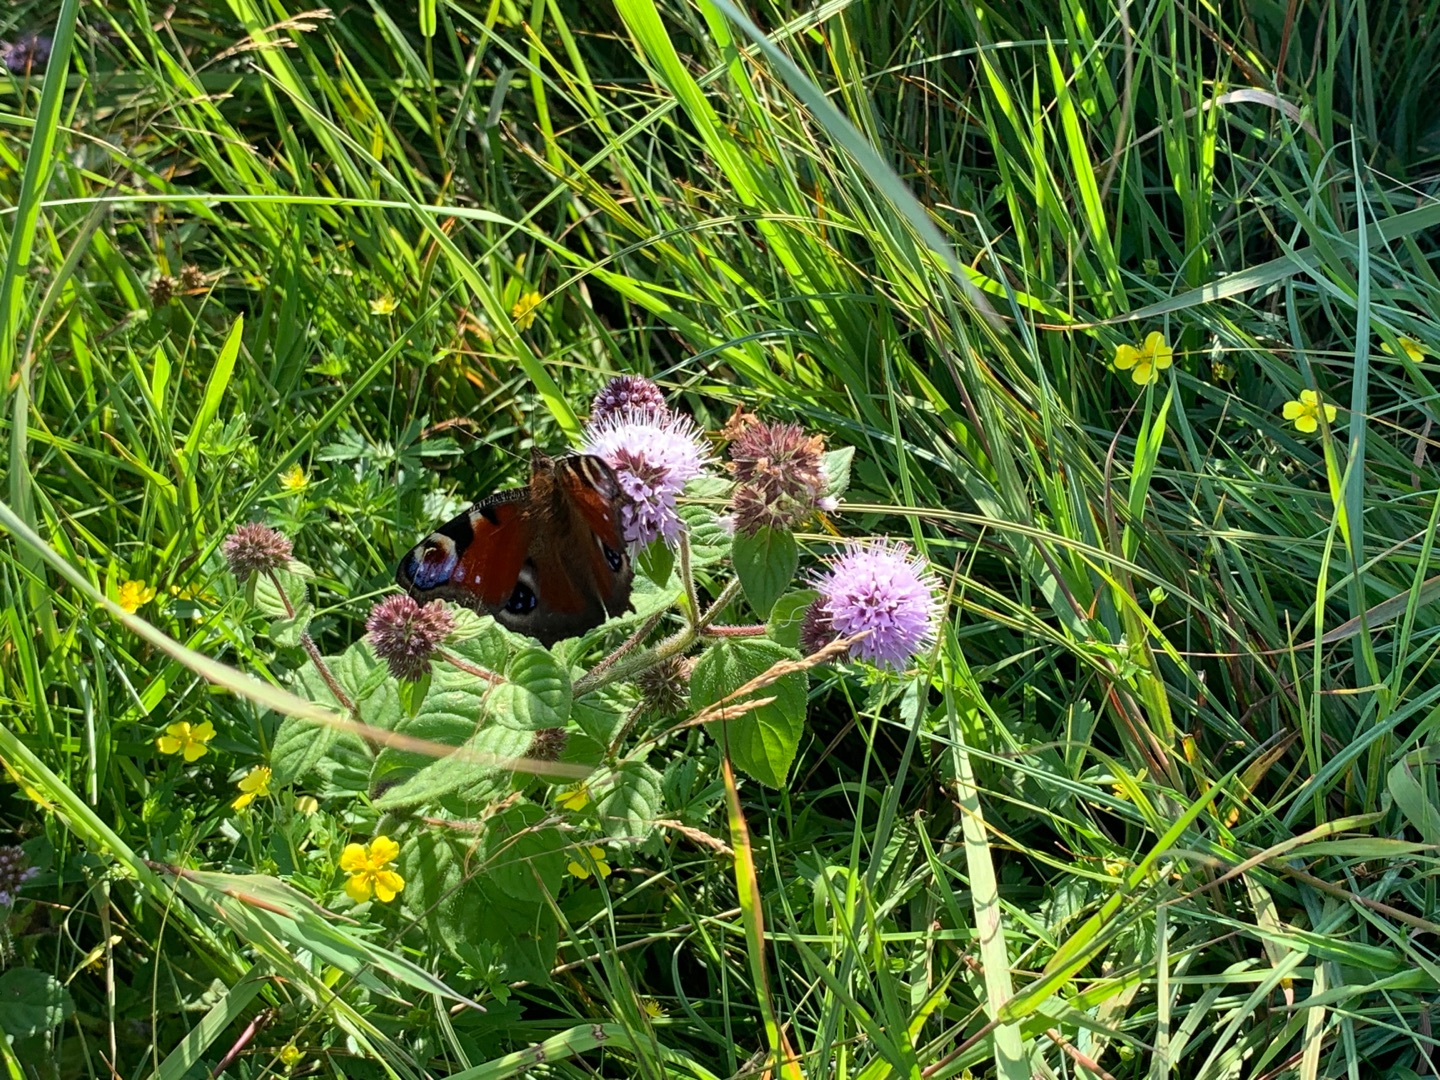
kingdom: Animalia
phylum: Arthropoda
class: Insecta
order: Lepidoptera
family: Nymphalidae
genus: Aglais
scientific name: Aglais io
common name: Dagpåfugleøje
